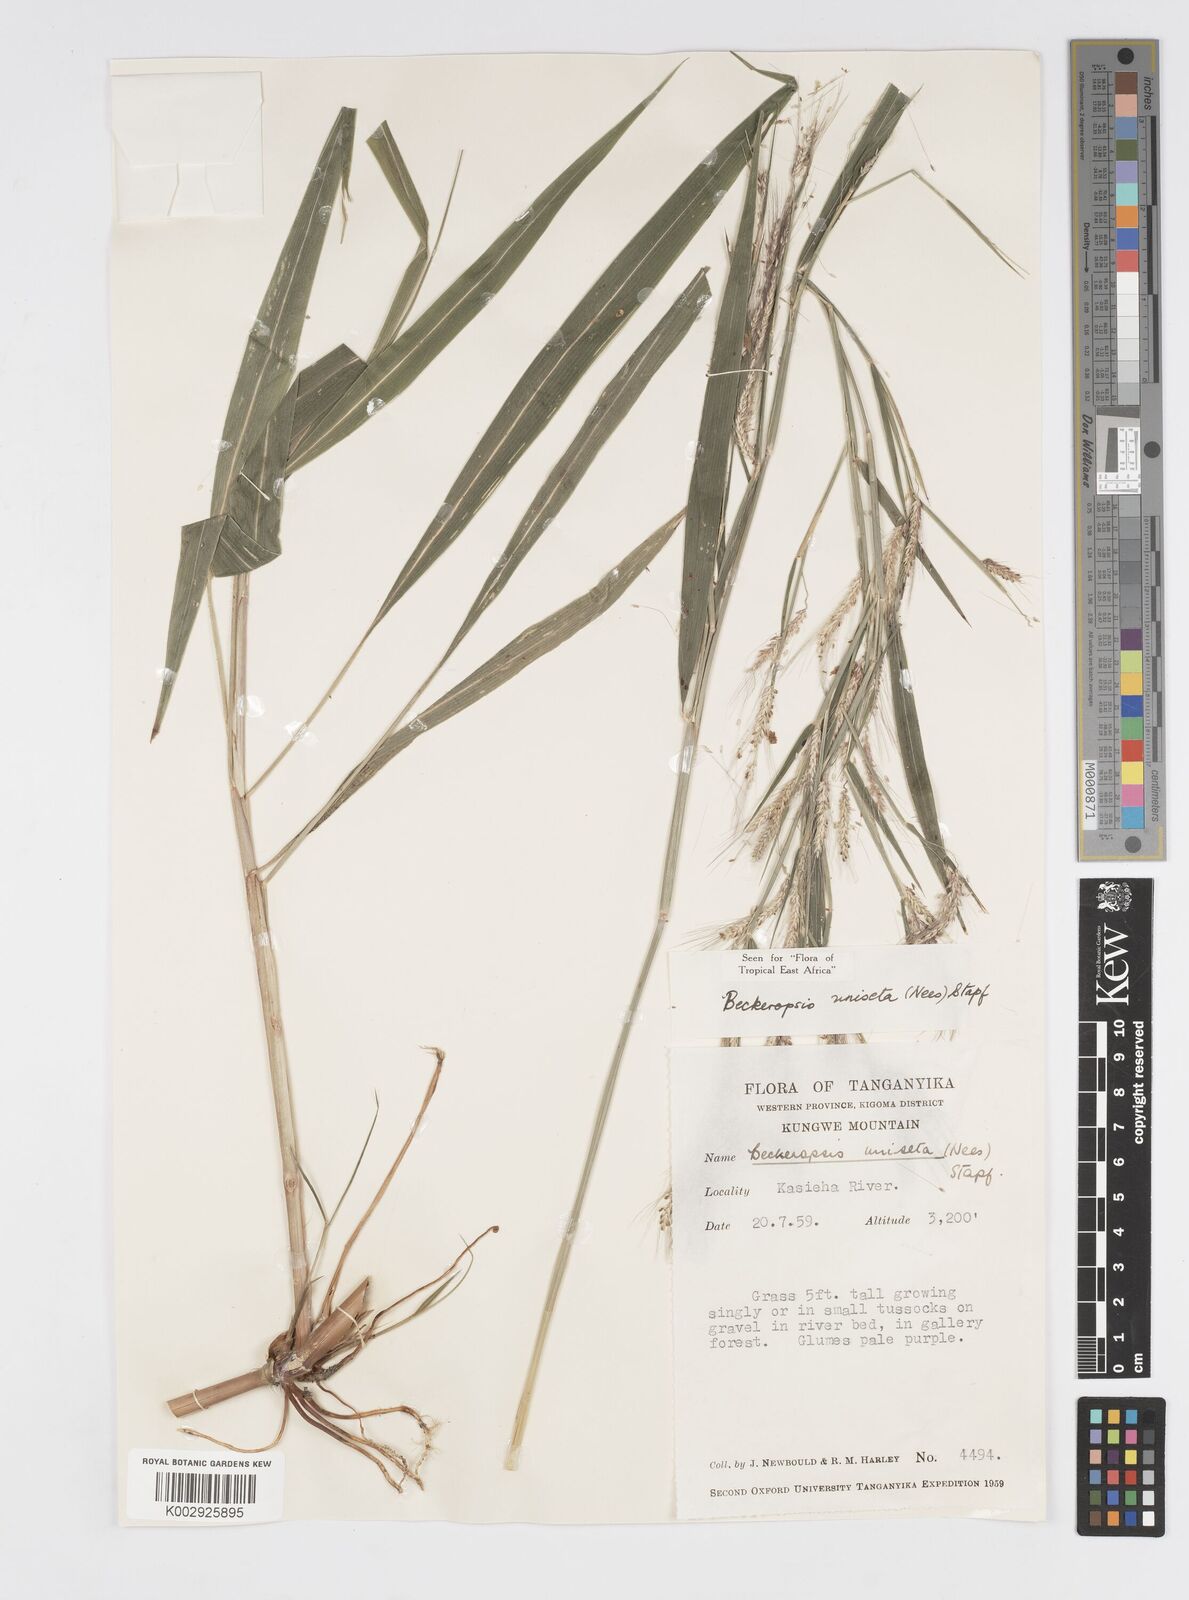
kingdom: Plantae
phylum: Tracheophyta
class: Liliopsida
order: Poales
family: Poaceae
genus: Cenchrus
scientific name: Cenchrus unisetus
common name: Natal grass
